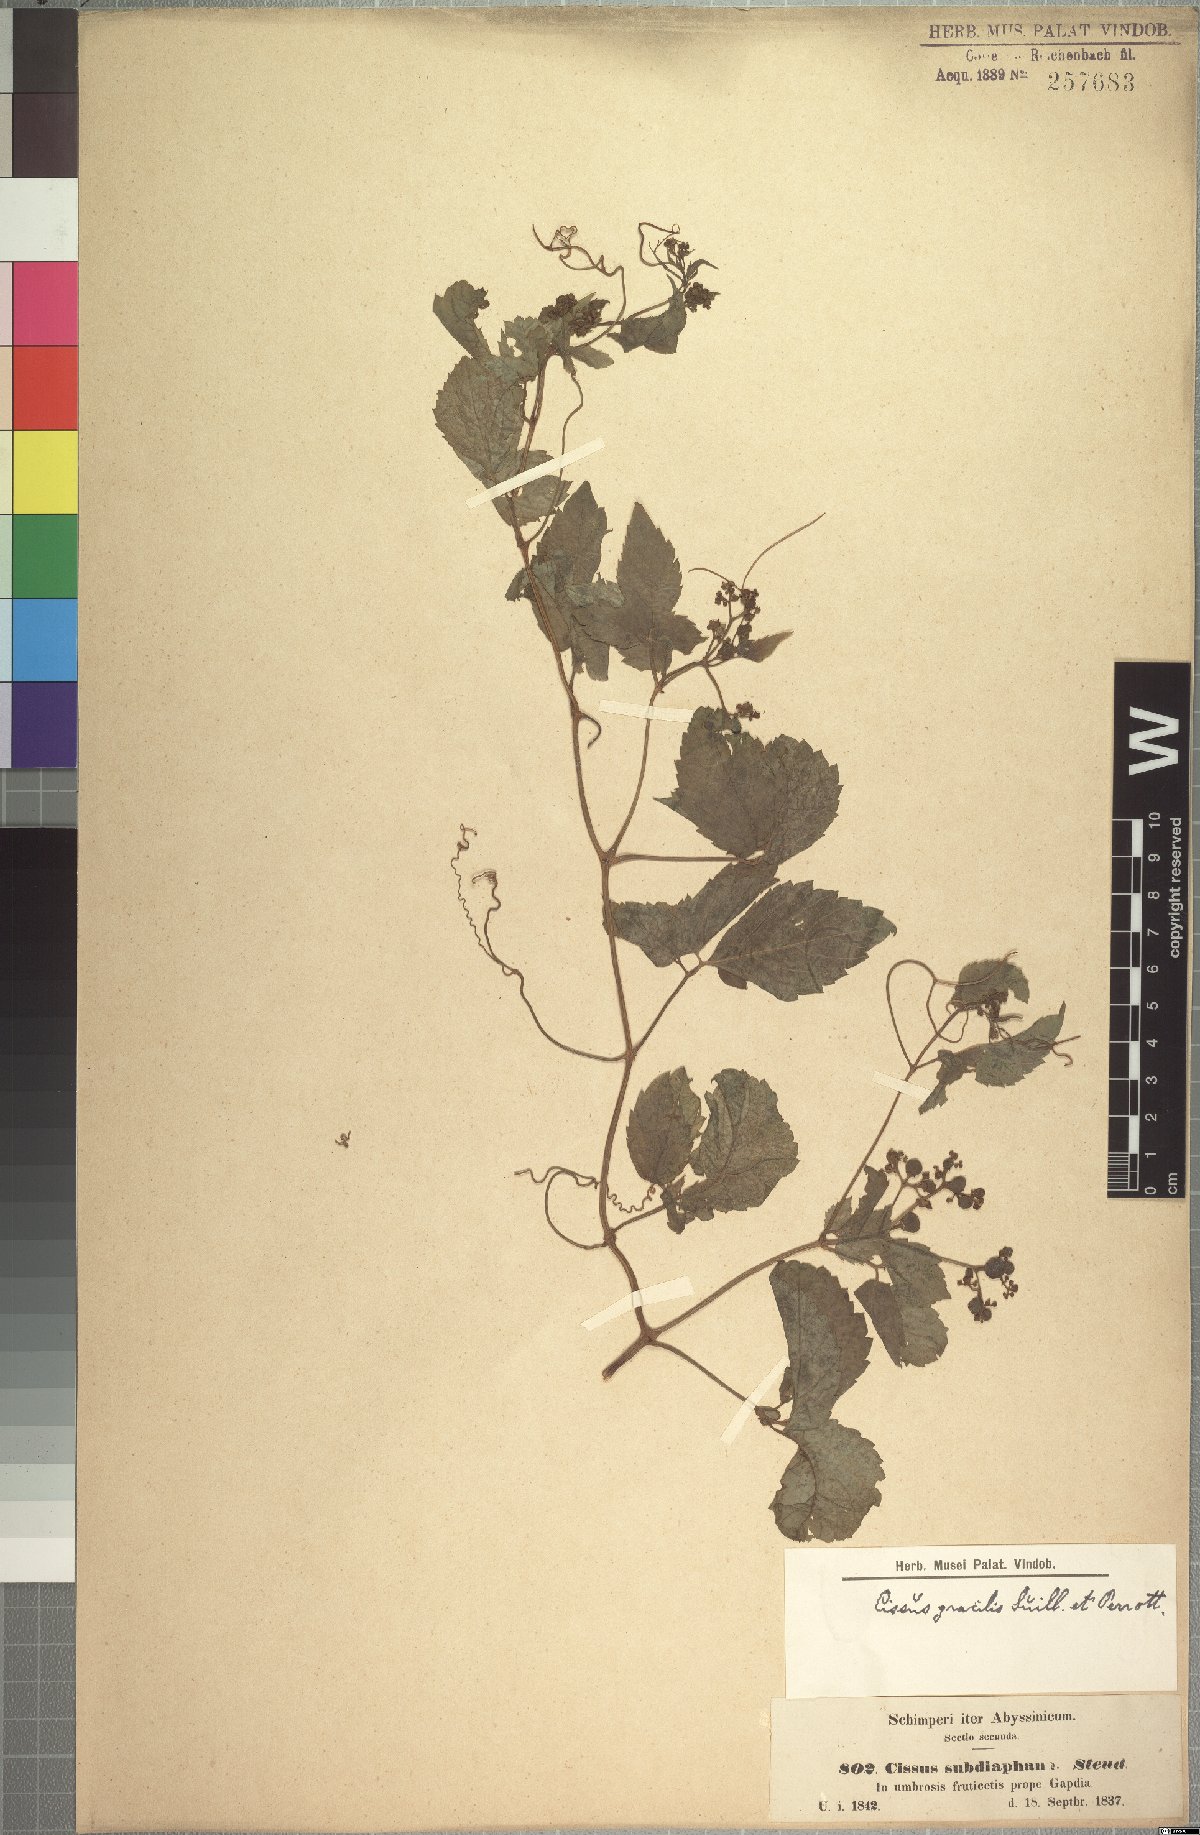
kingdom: Plantae
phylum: Tracheophyta
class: Magnoliopsida
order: Vitales
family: Vitaceae
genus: Afrocayratia
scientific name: Afrocayratia gracilis
